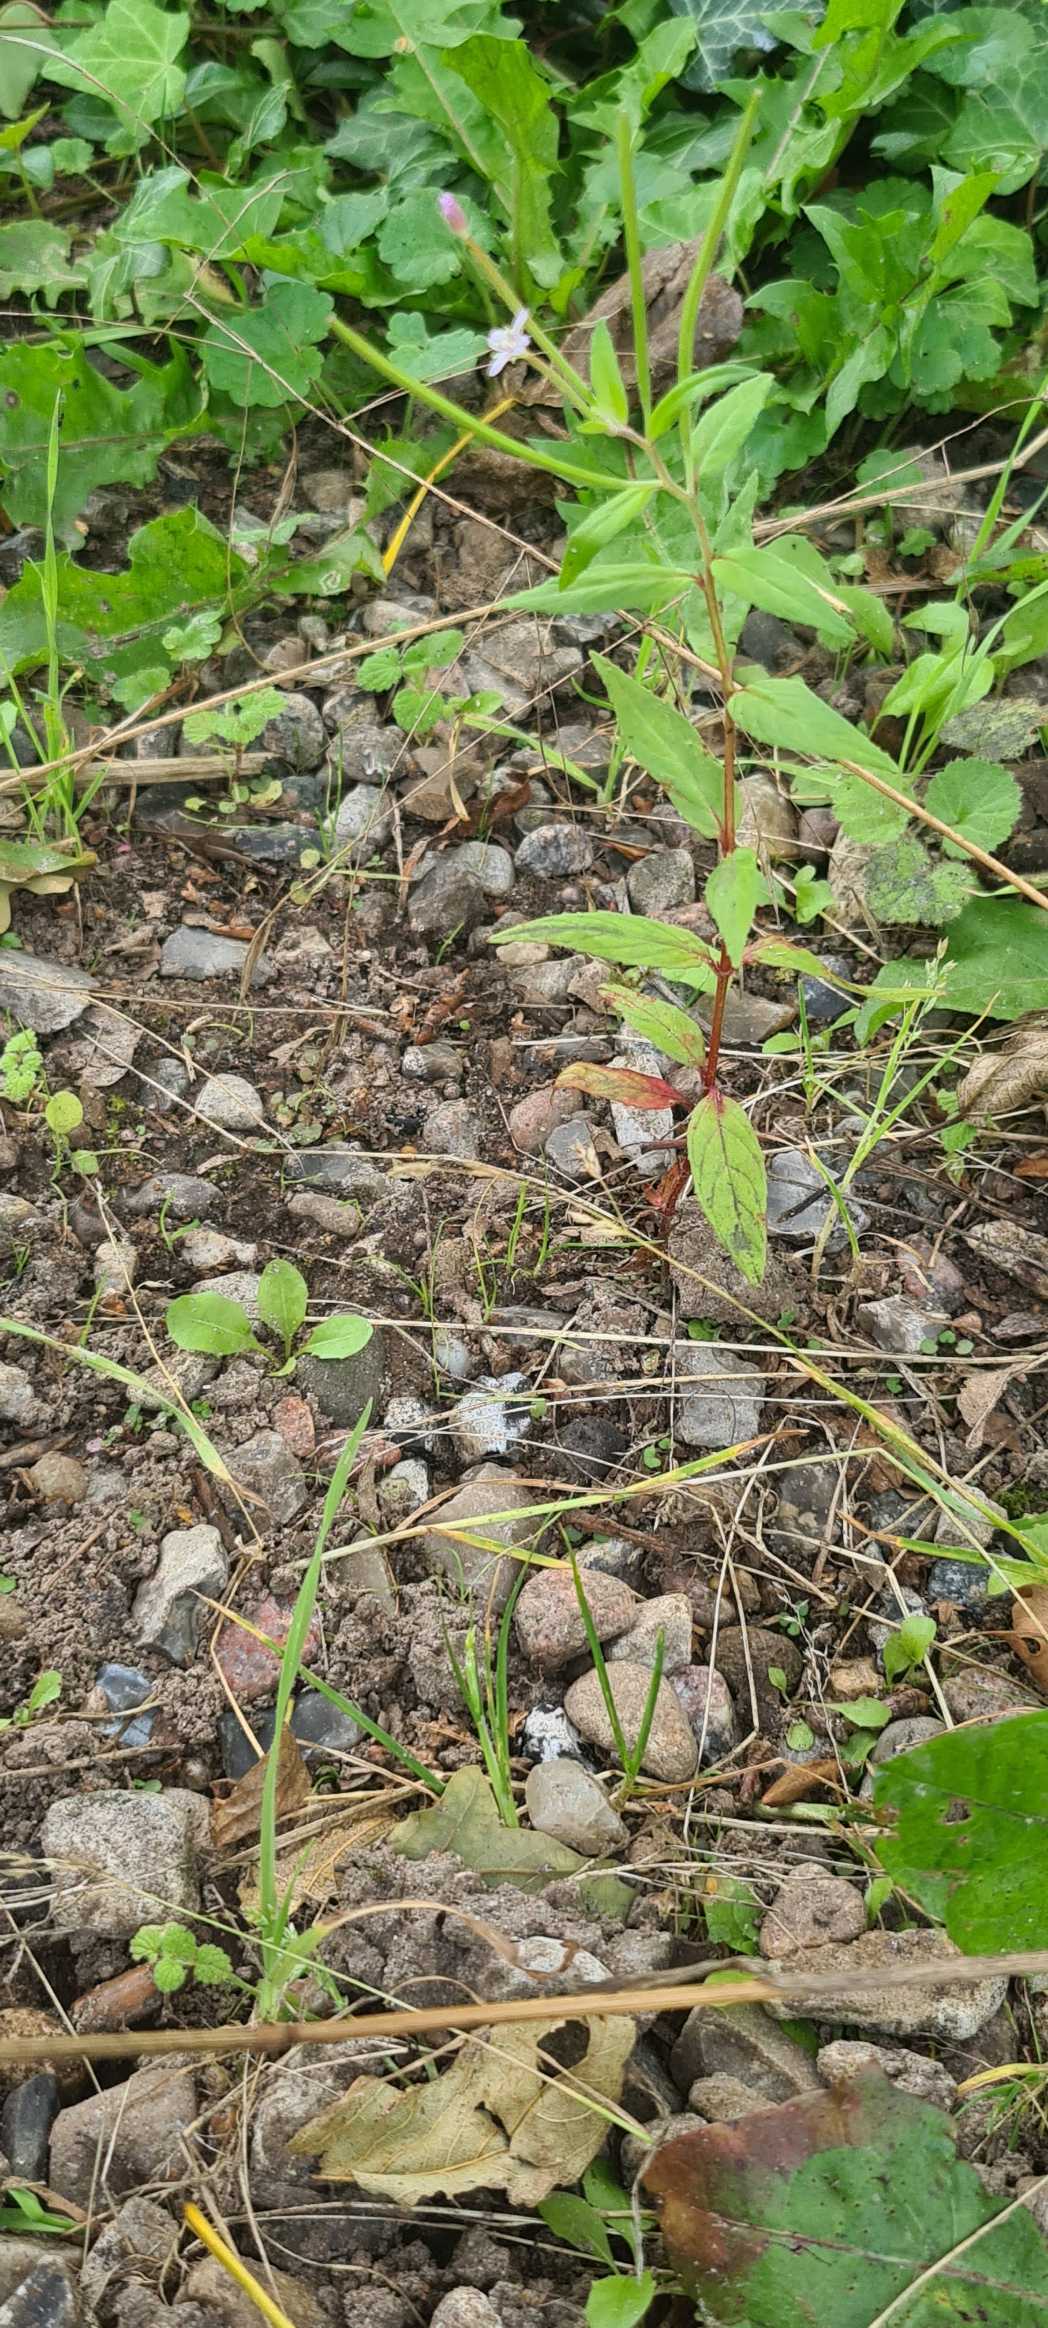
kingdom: Plantae
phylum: Tracheophyta
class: Magnoliopsida
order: Myrtales
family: Onagraceae
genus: Epilobium
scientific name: Epilobium
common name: Dueurtslægten
